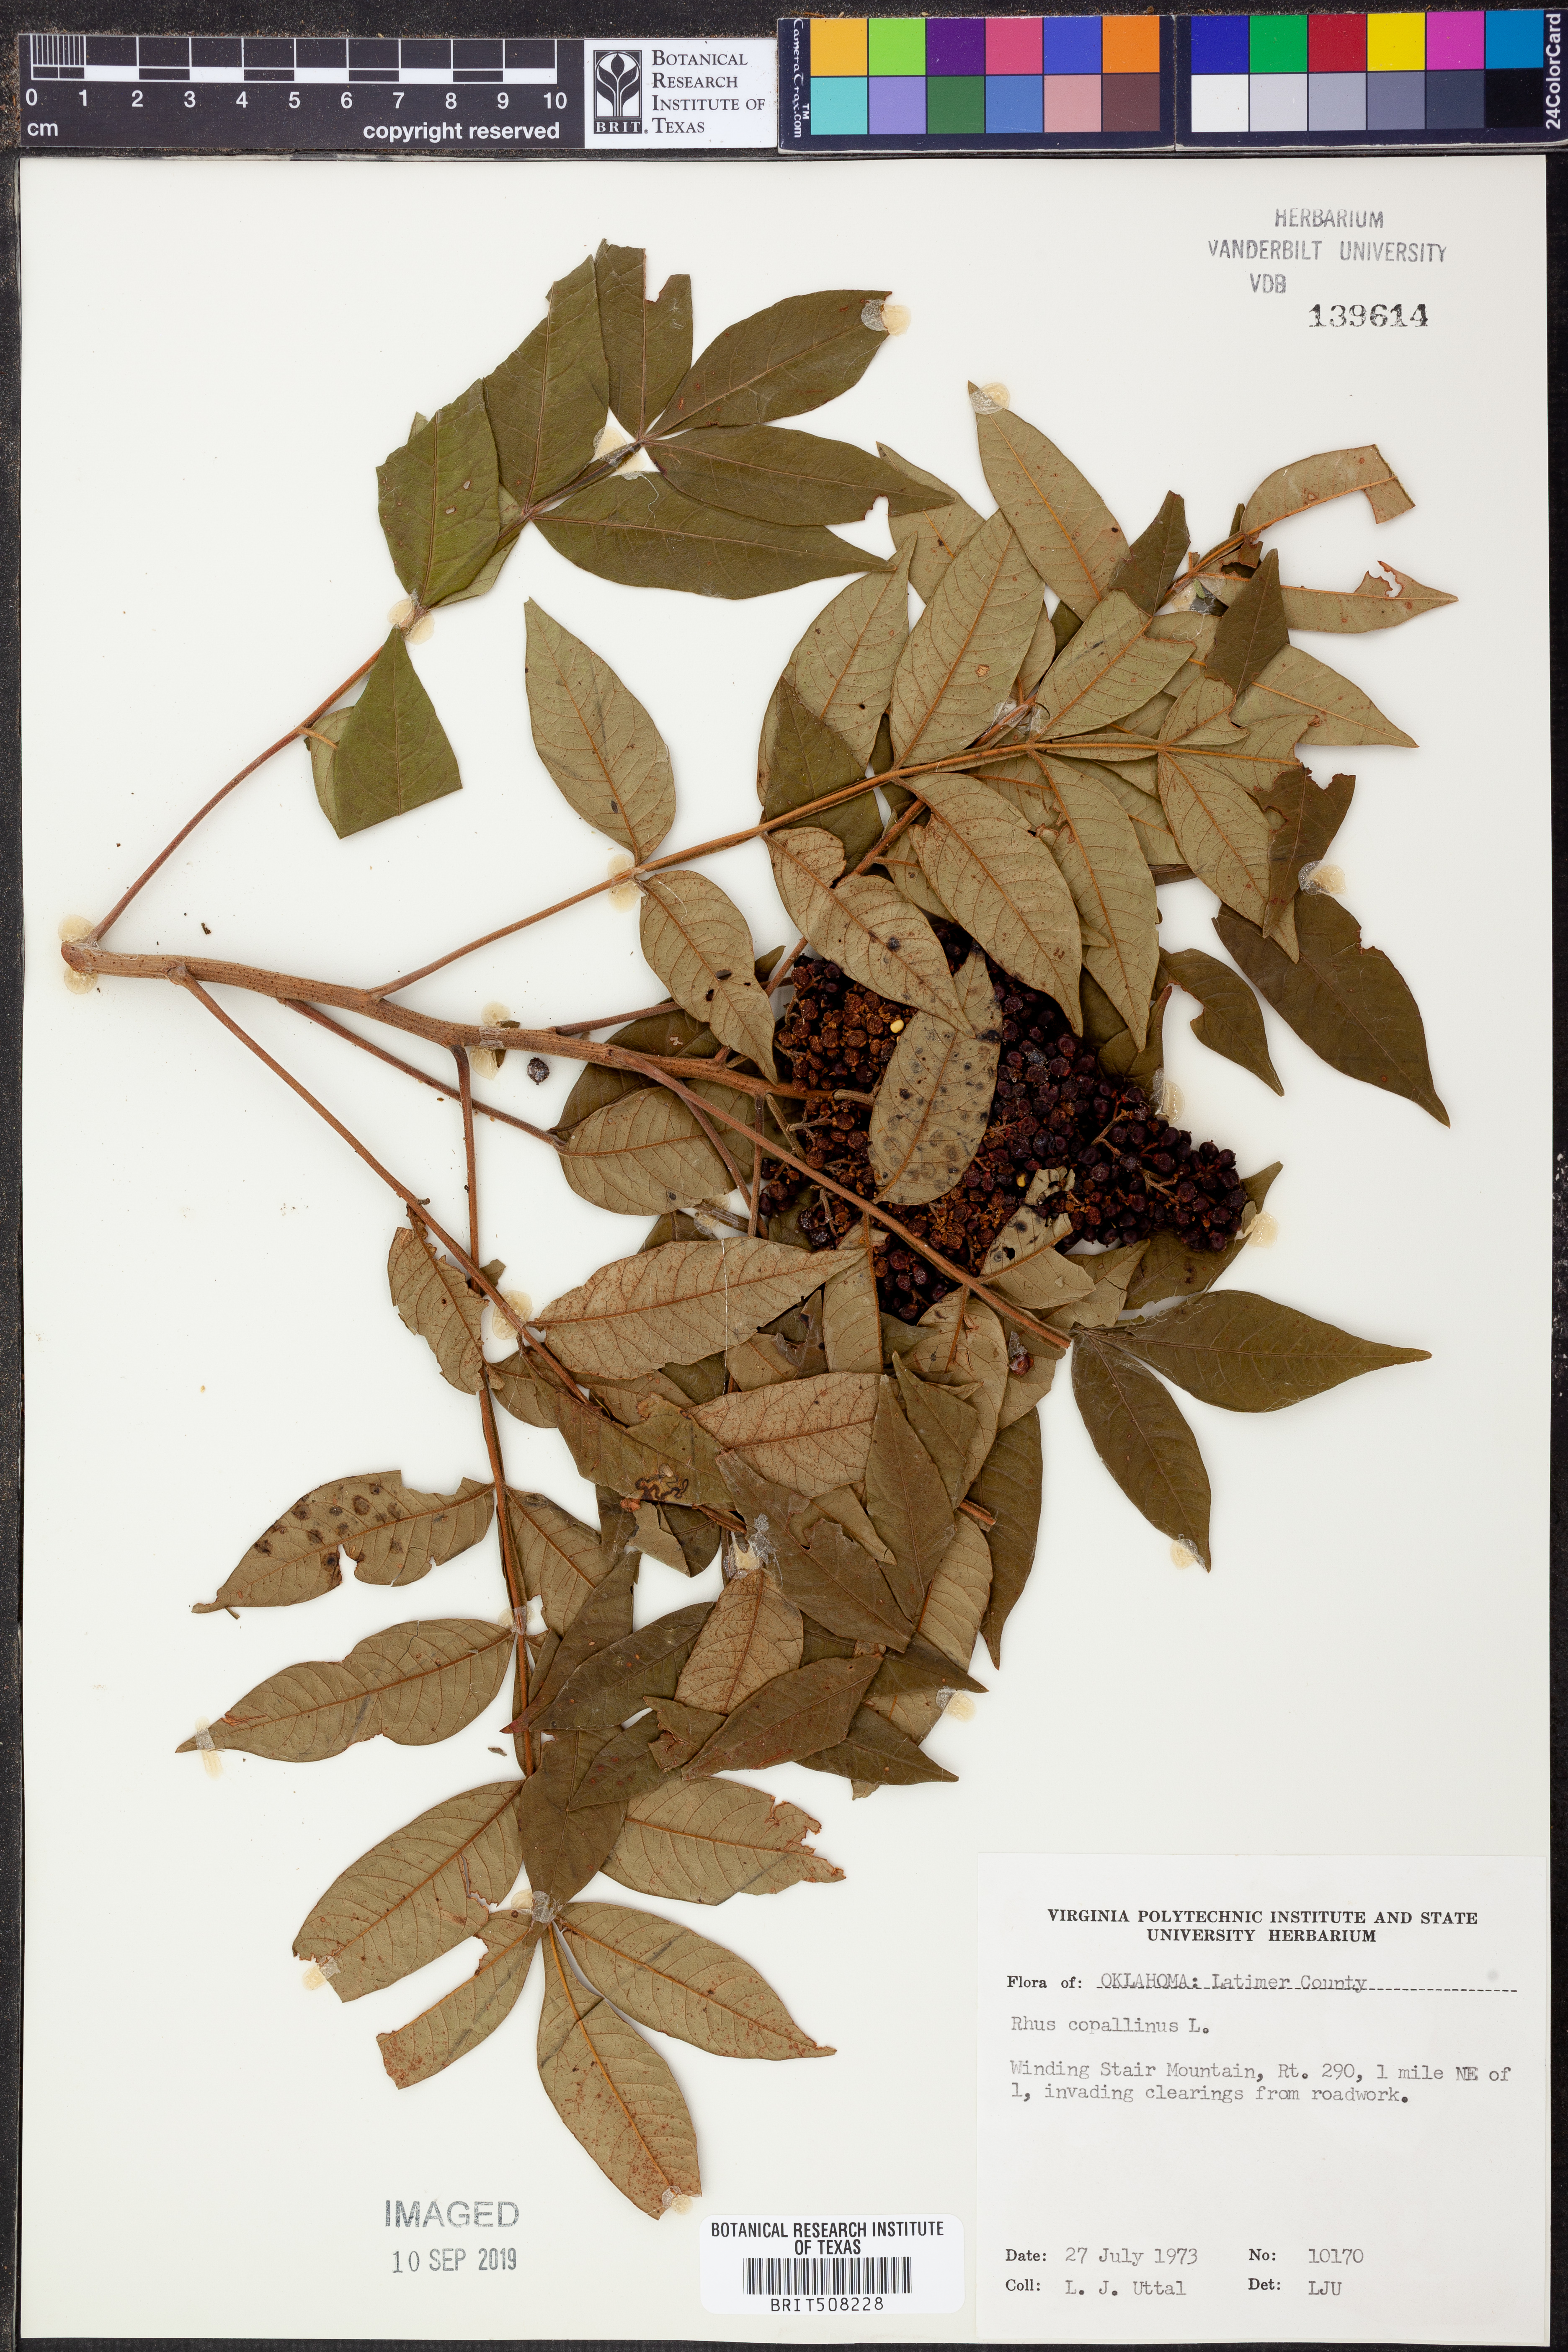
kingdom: Plantae
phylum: Tracheophyta
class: Magnoliopsida
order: Sapindales
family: Anacardiaceae
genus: Rhus
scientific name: Rhus copallina
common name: Shining sumac
